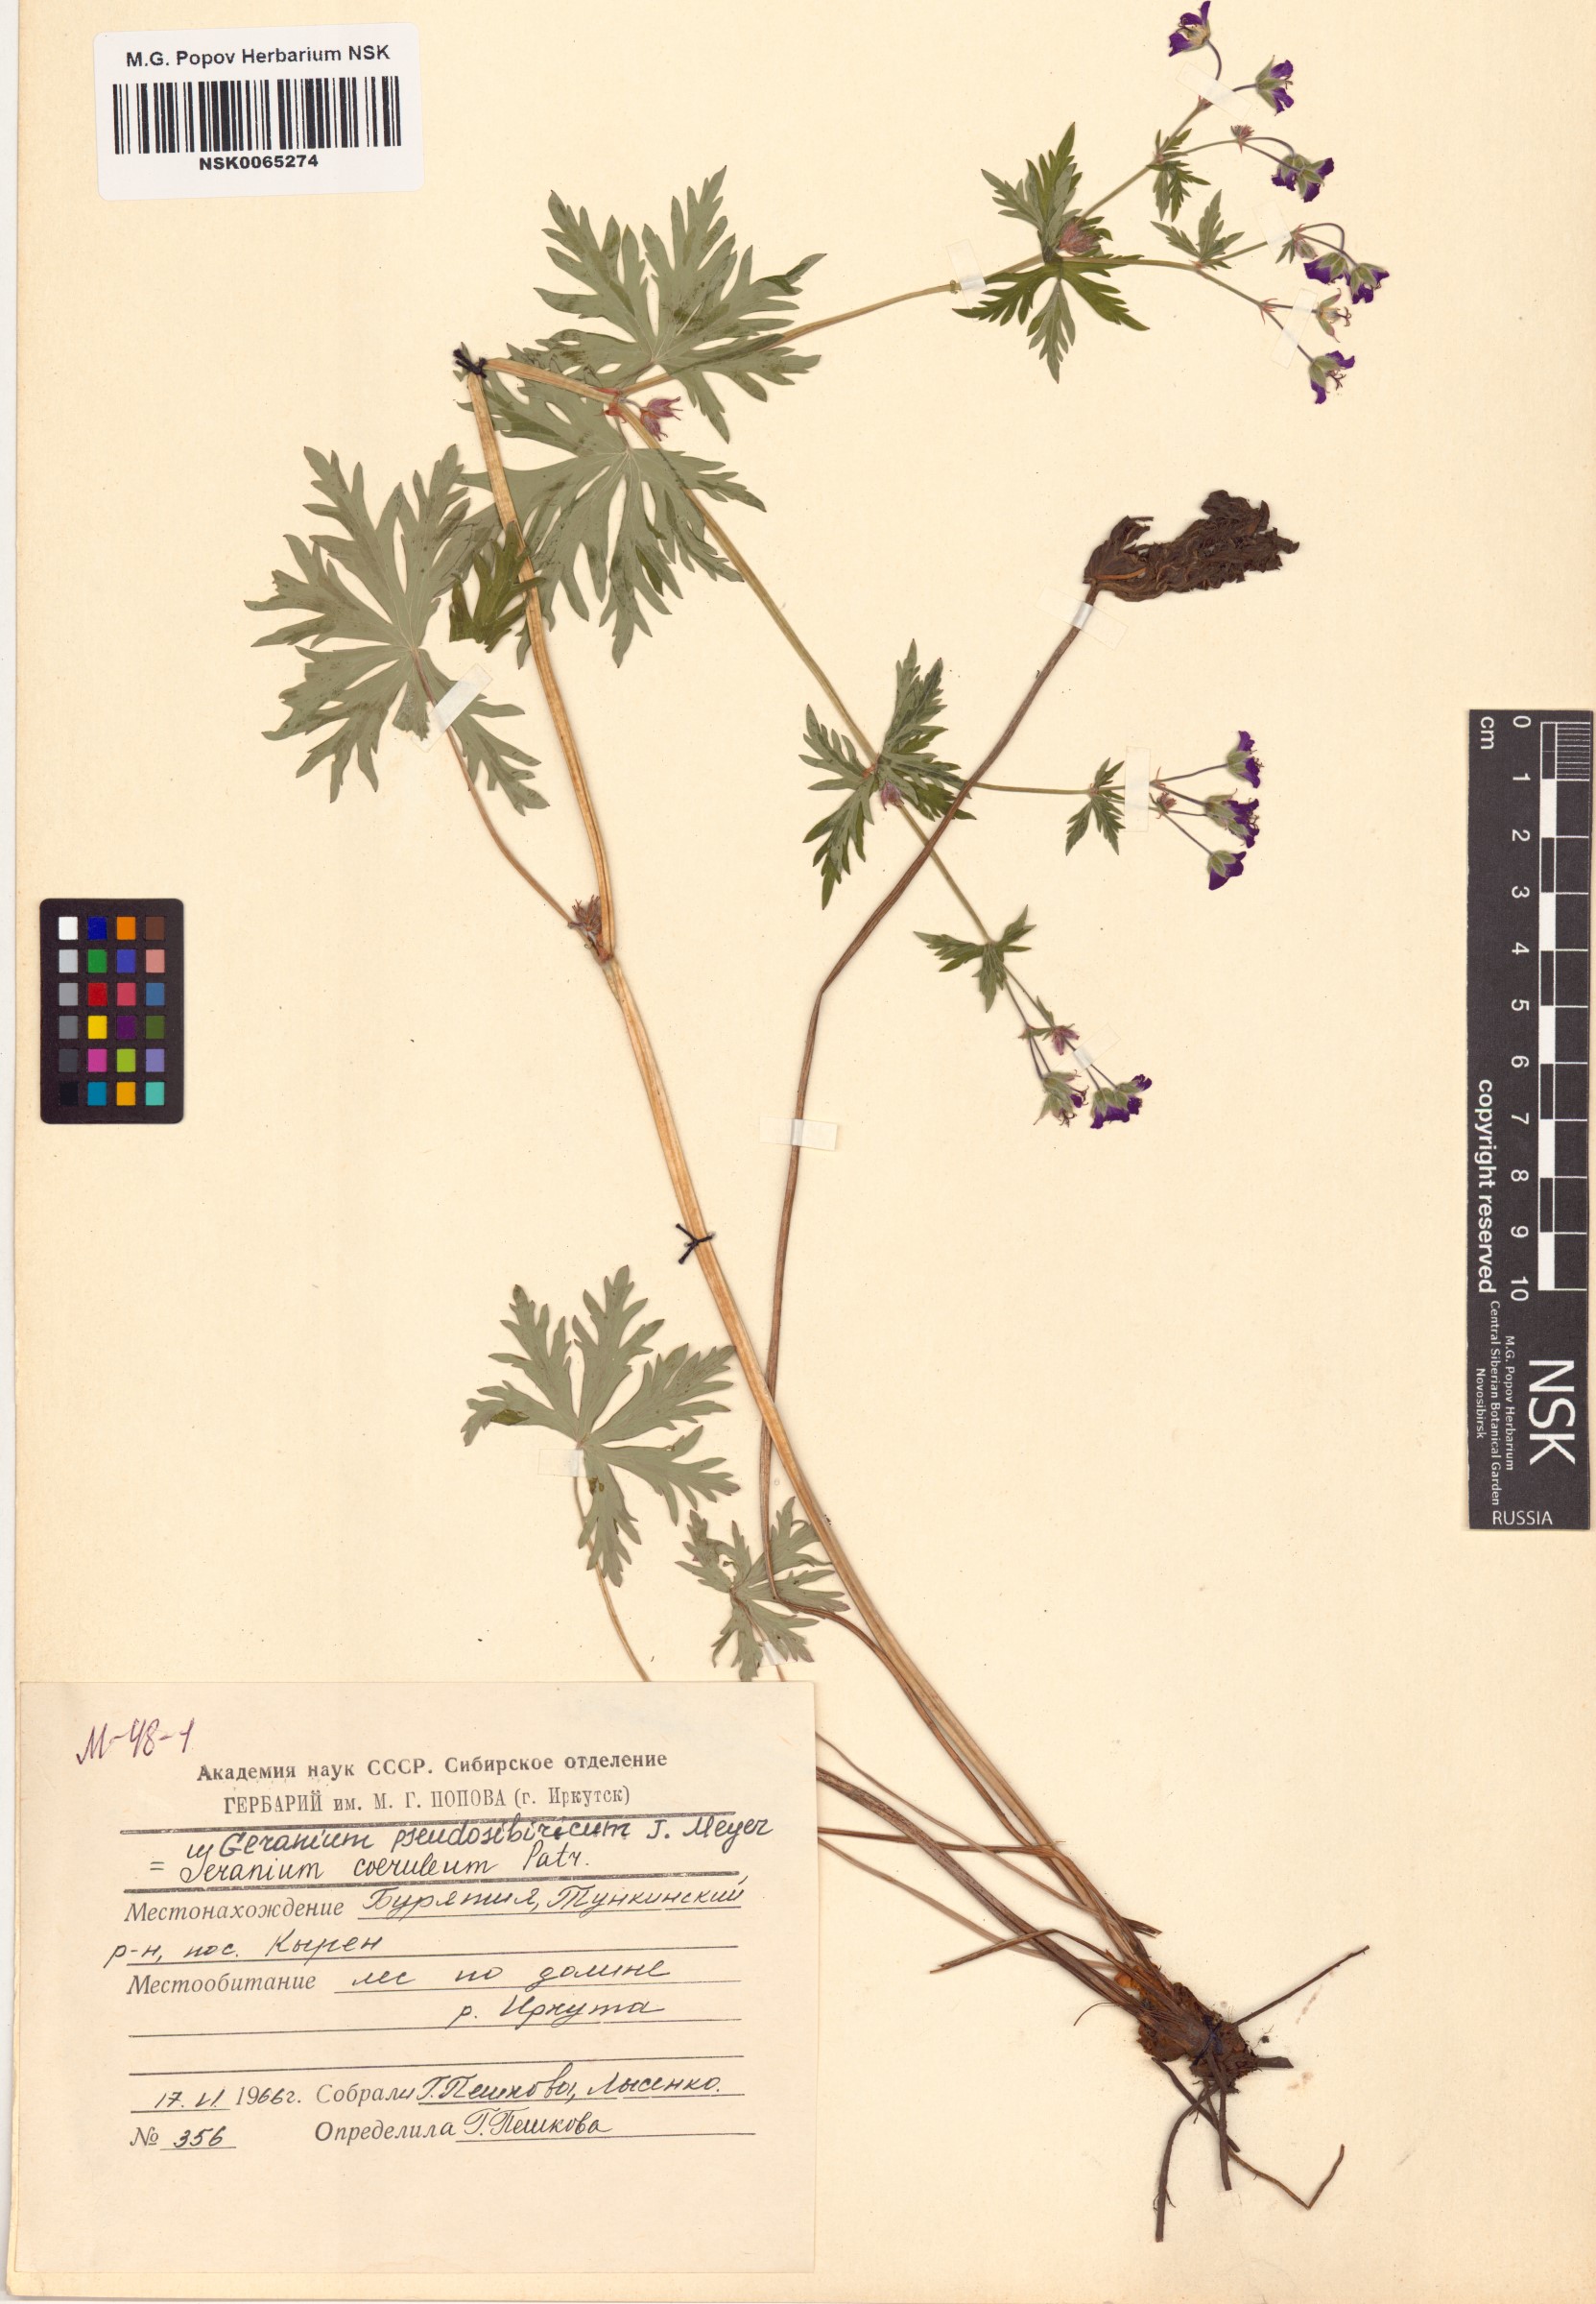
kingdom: Plantae
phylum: Tracheophyta
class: Magnoliopsida
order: Geraniales
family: Geraniaceae
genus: Geranium
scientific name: Geranium pseudosibiricum
